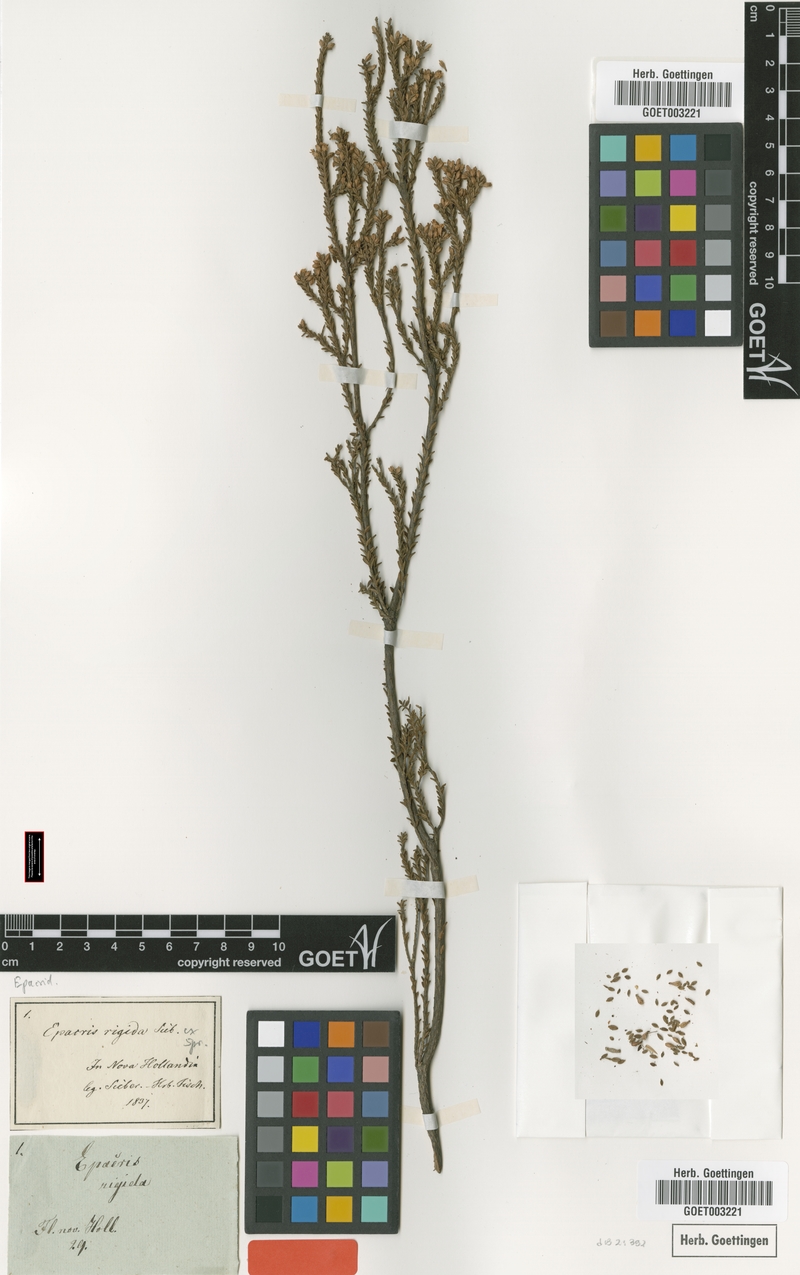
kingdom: Plantae
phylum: Tracheophyta
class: Magnoliopsida
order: Ericales
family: Ericaceae
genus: Epacris
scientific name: Epacris rigida
